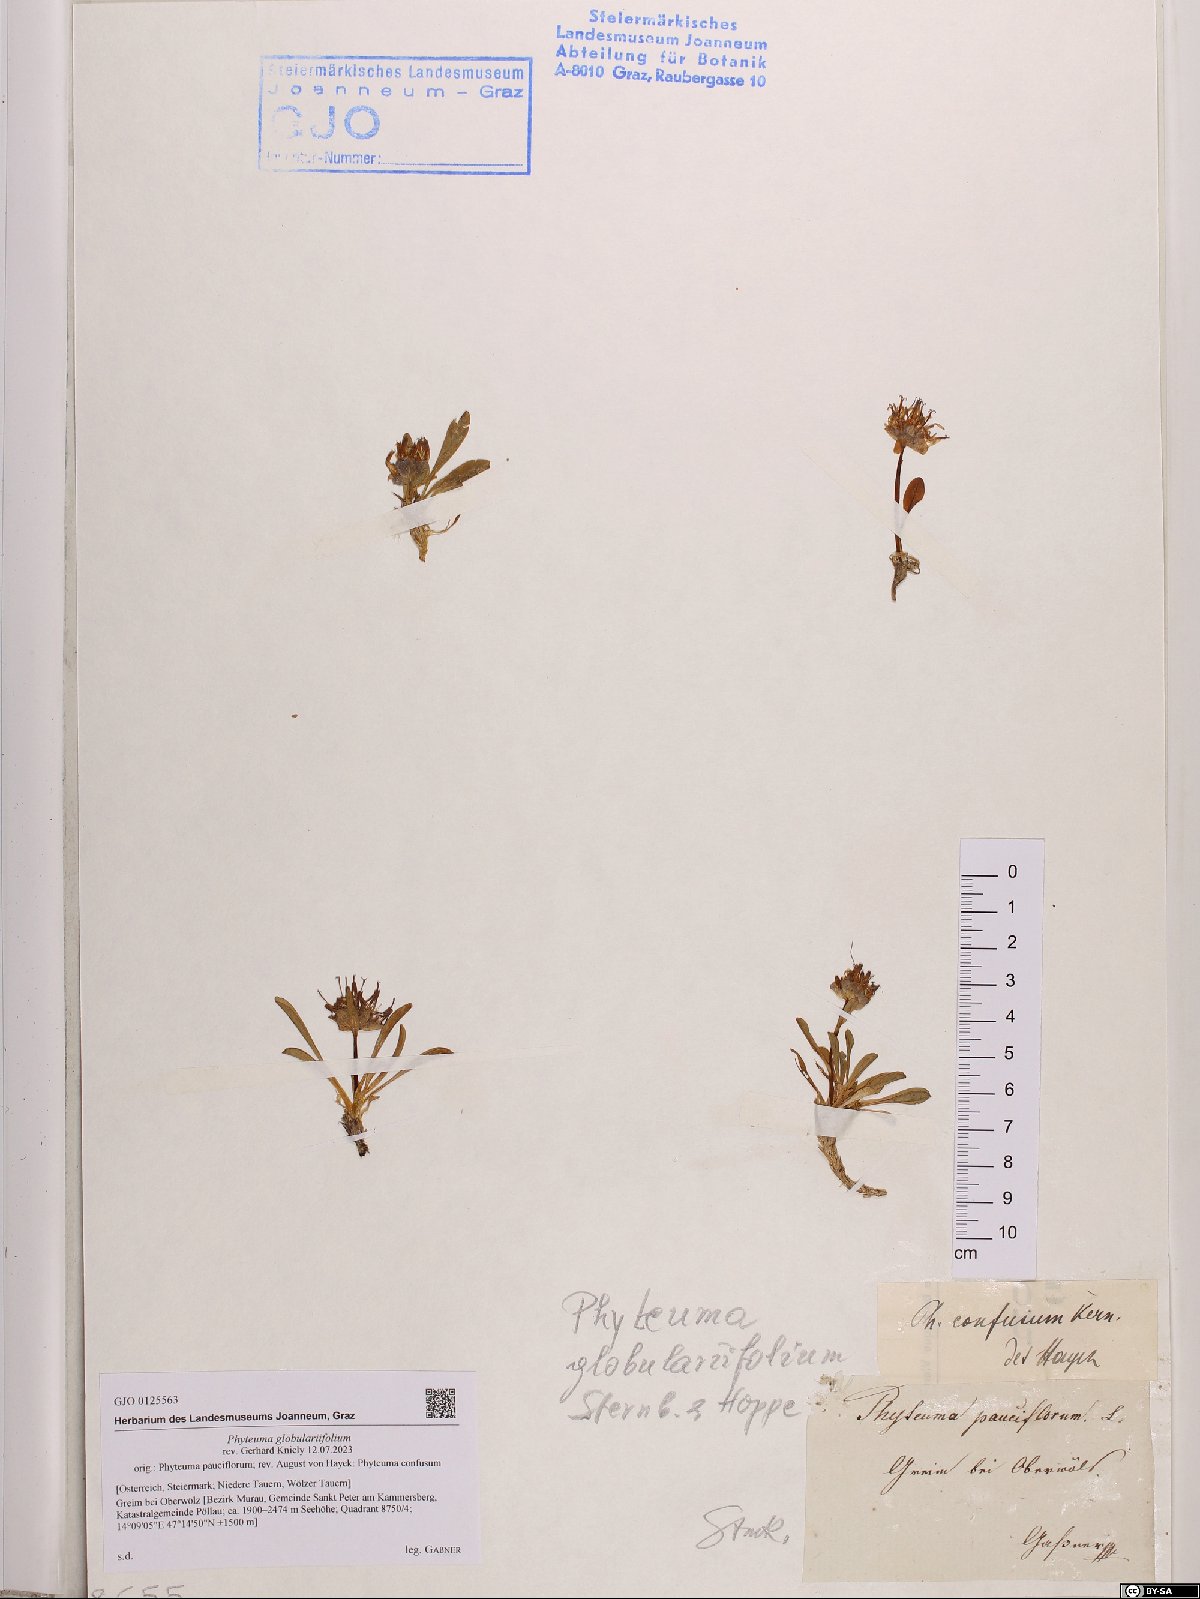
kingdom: Plantae
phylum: Tracheophyta
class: Magnoliopsida
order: Asterales
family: Campanulaceae
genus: Phyteuma
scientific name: Phyteuma globulariifolium
